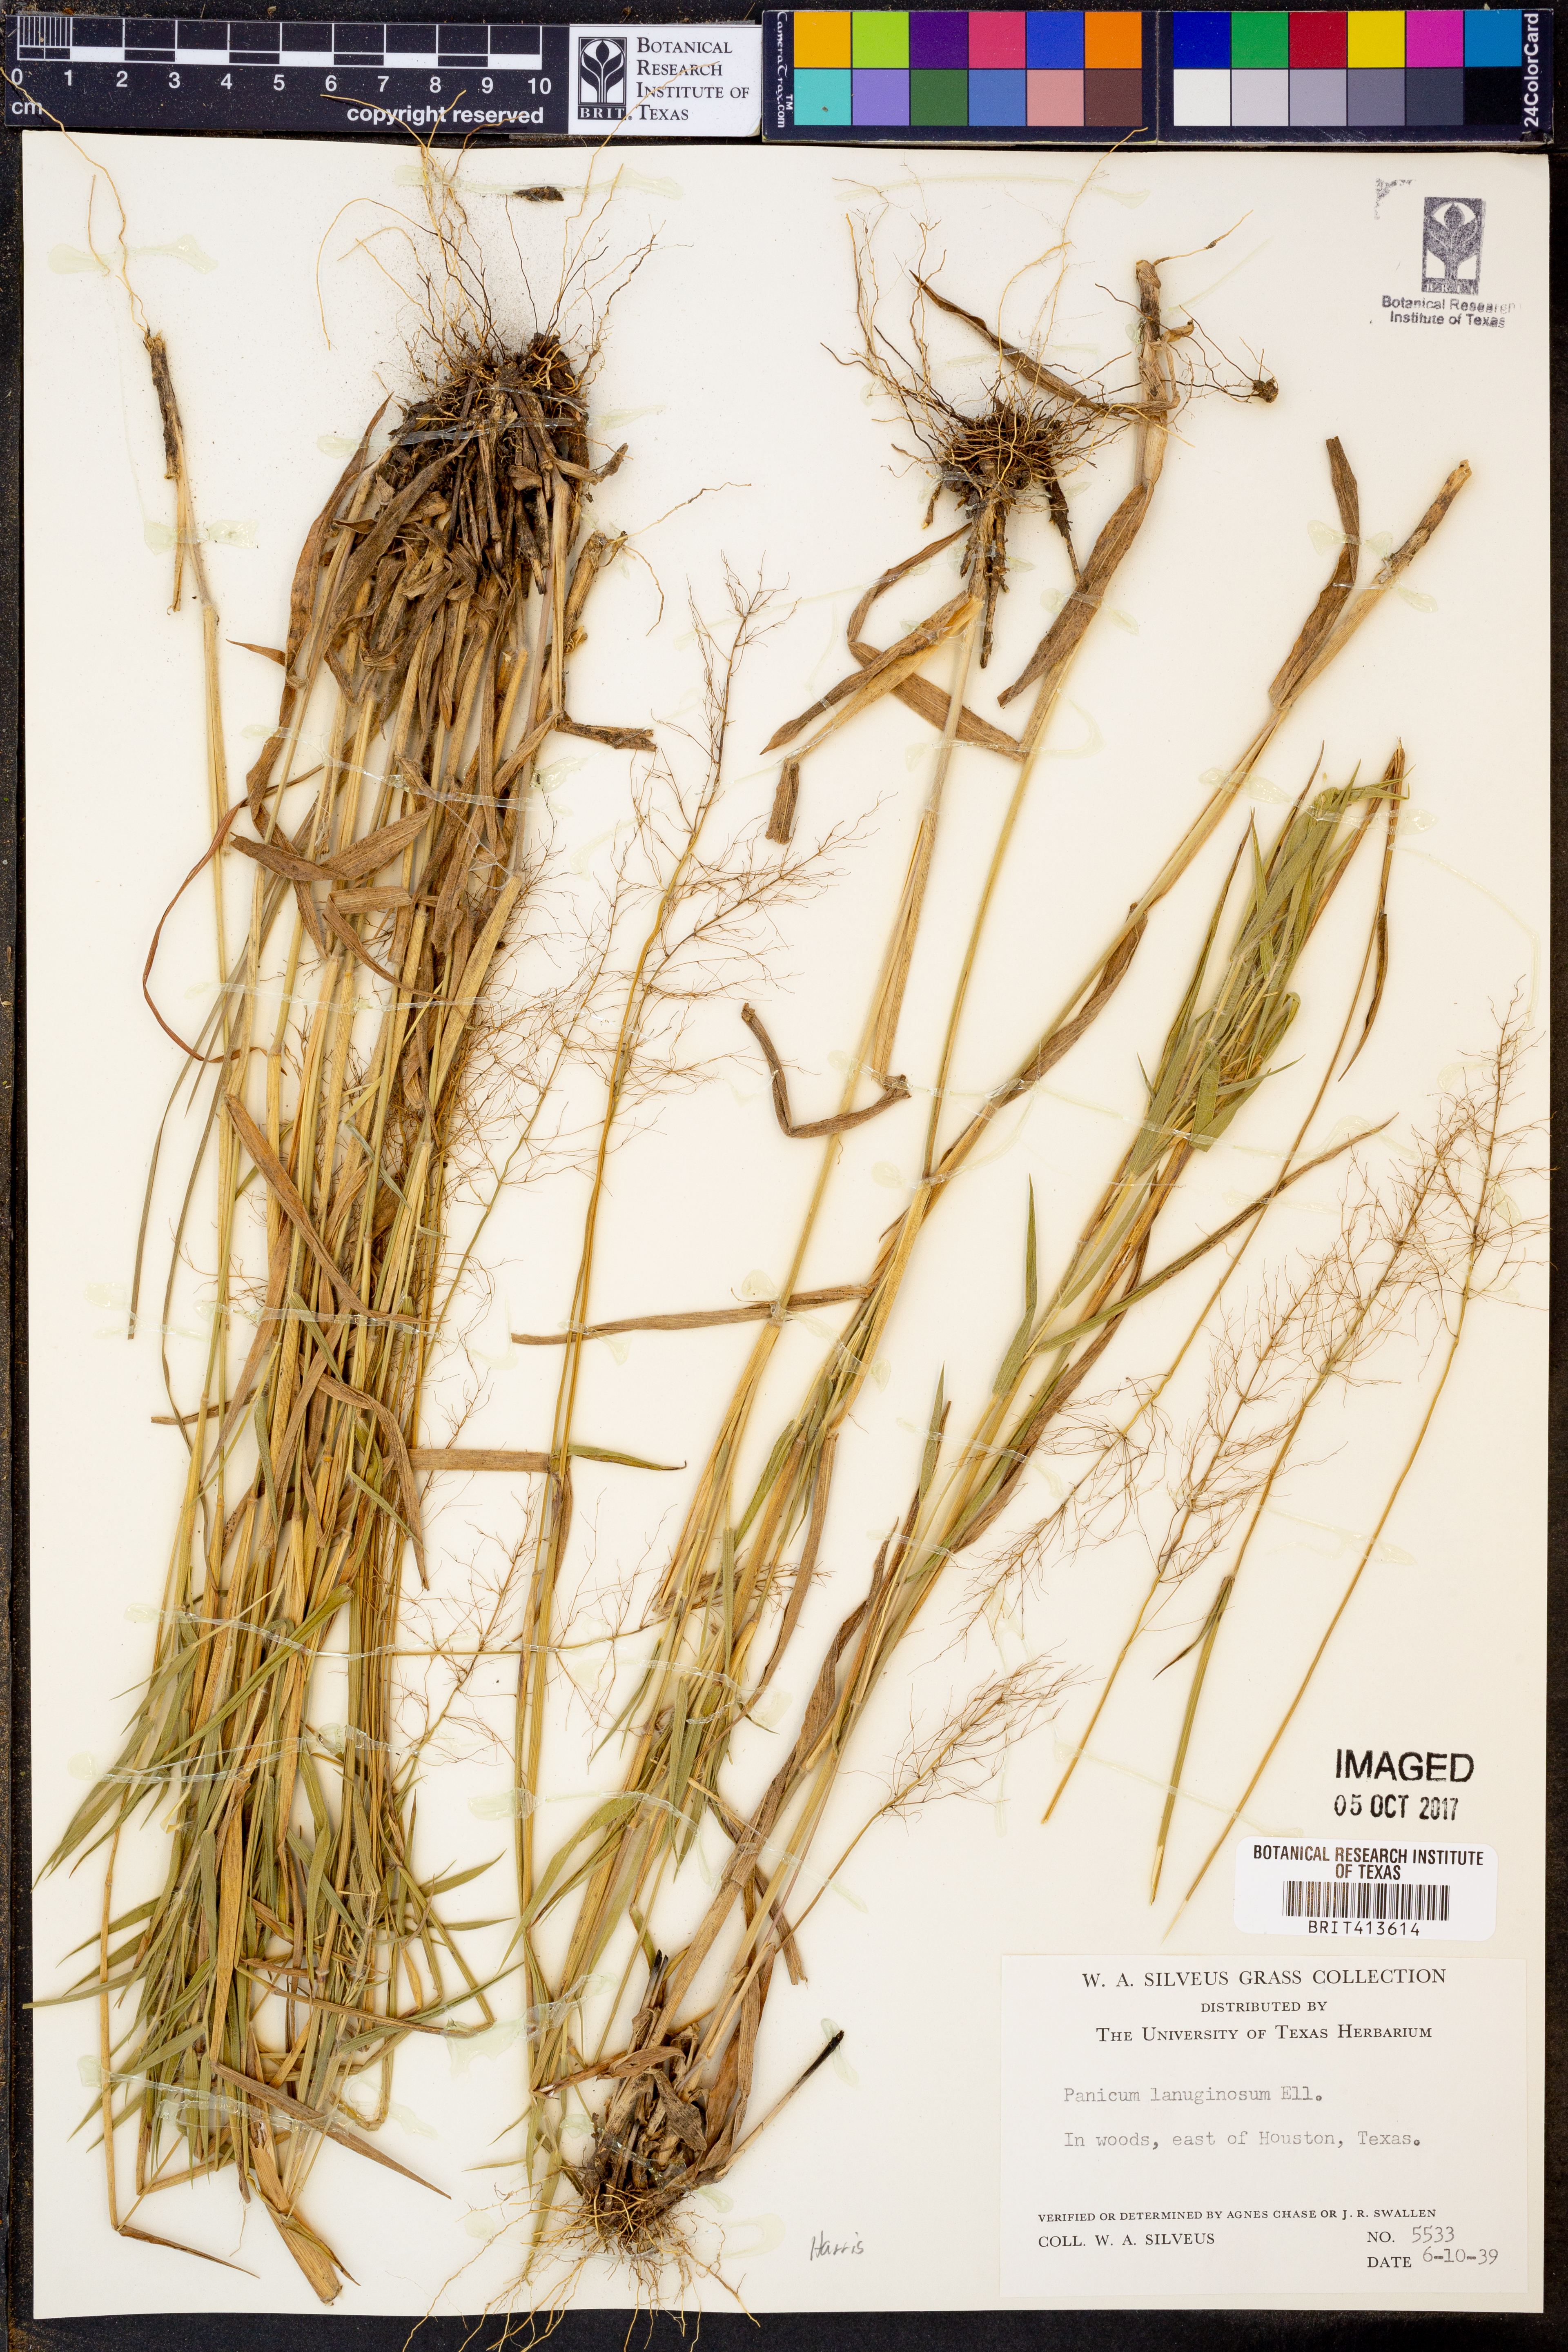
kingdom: Plantae
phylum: Tracheophyta
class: Liliopsida
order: Poales
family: Poaceae
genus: Dichanthelium
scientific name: Dichanthelium lanuginosum
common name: Woolly panicgrass
